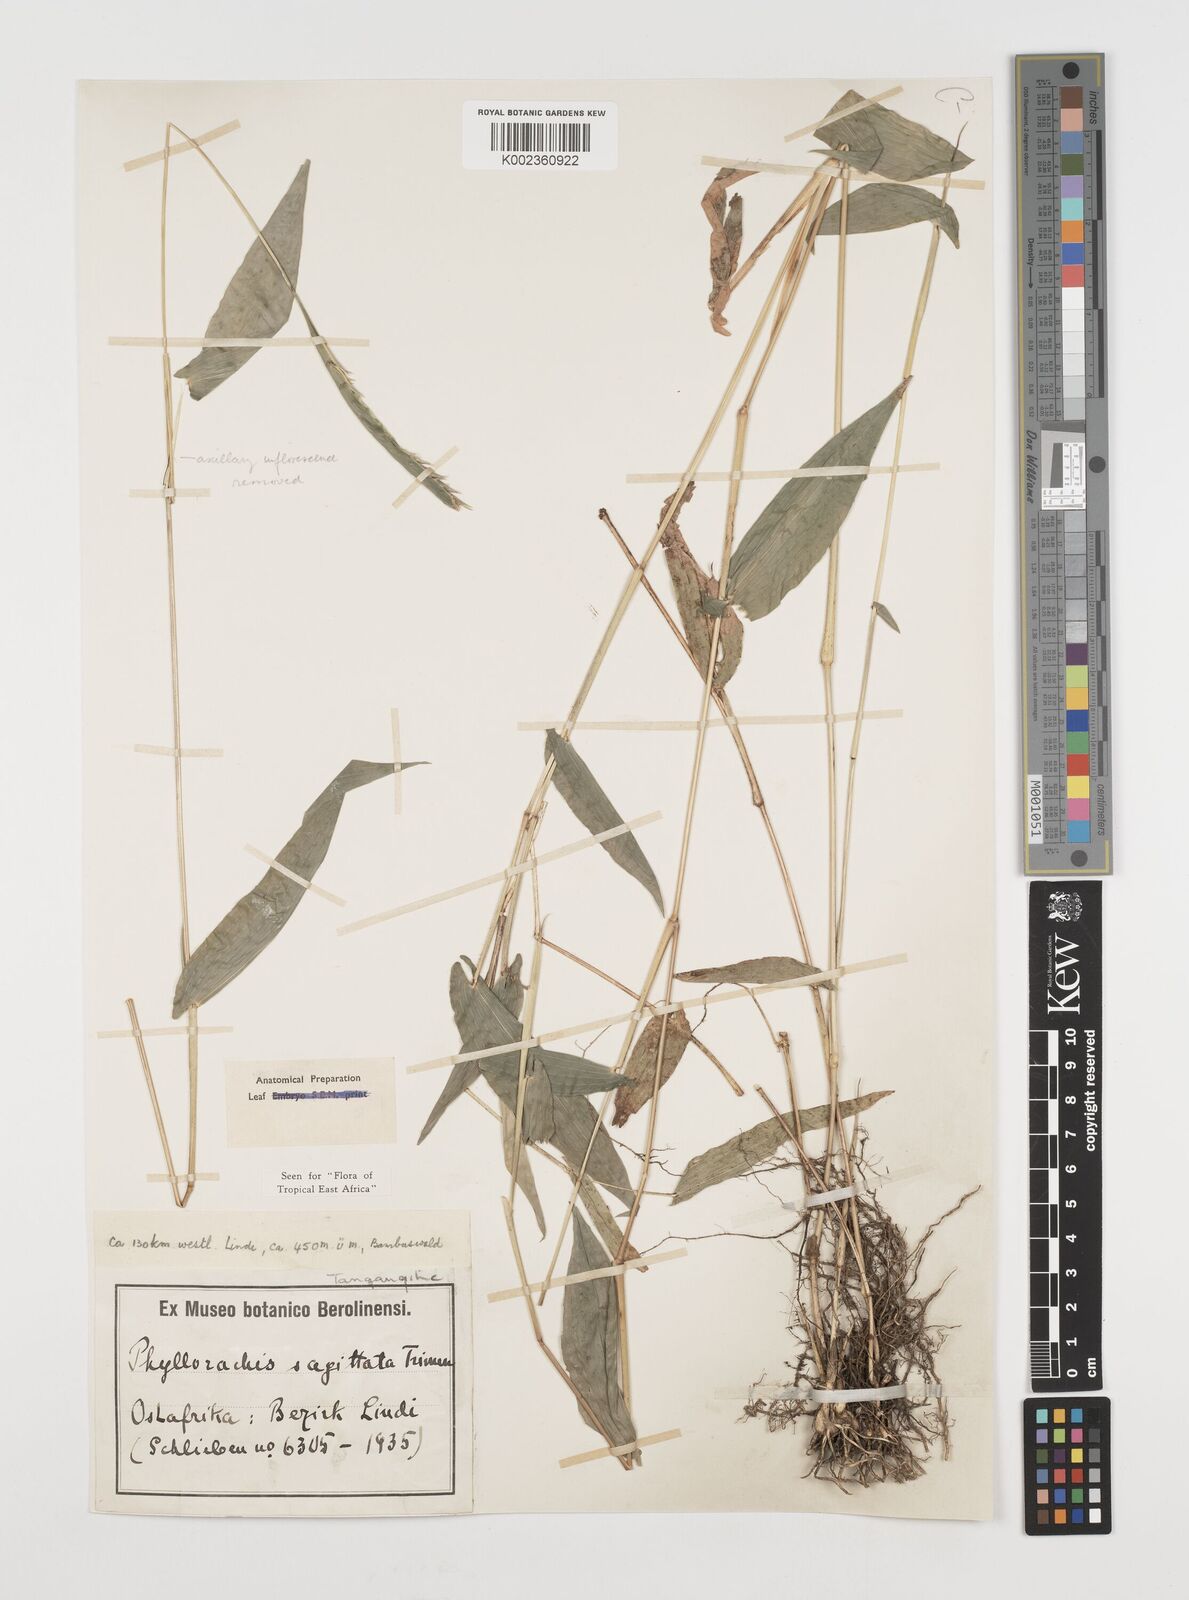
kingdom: Plantae
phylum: Tracheophyta
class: Liliopsida
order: Poales
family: Poaceae
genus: Phyllorachis
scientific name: Phyllorachis sagittata
